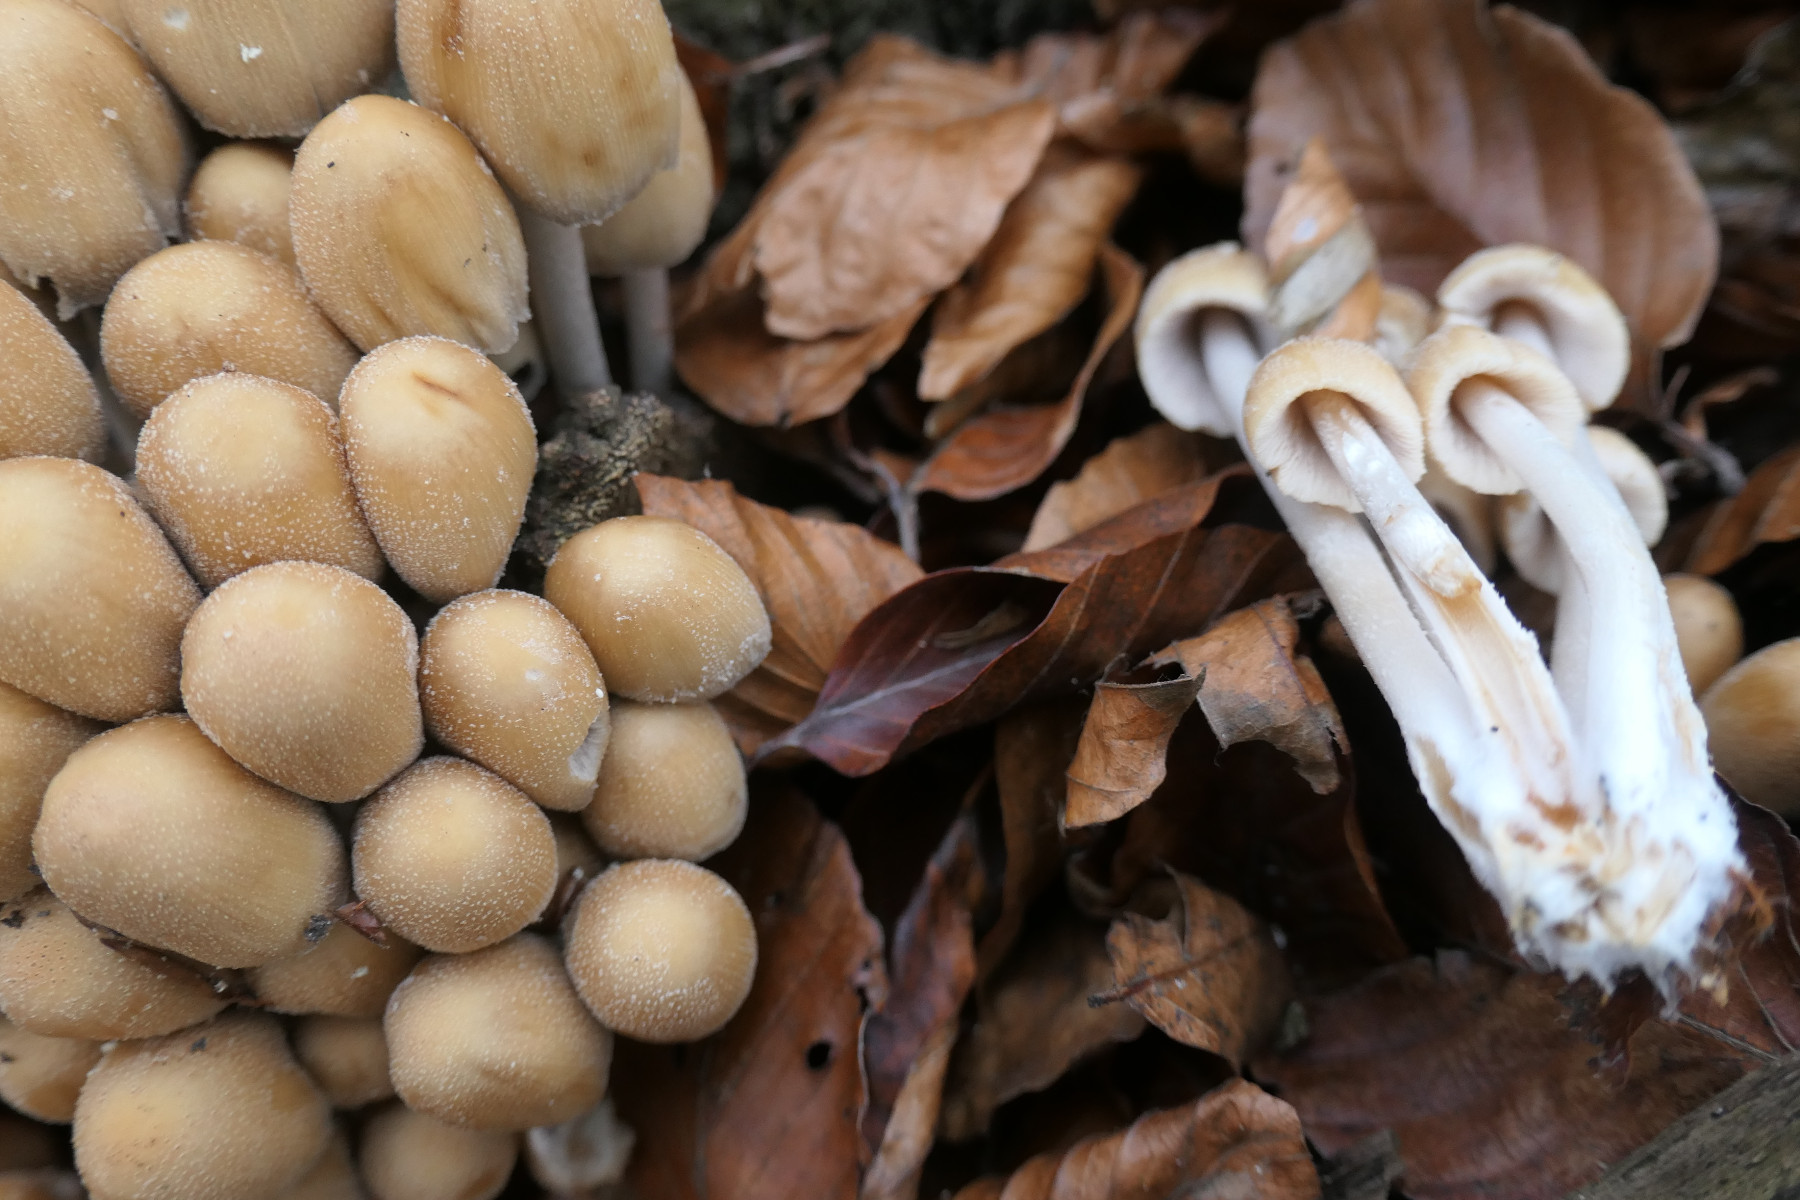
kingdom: Fungi
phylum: Basidiomycota
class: Agaricomycetes
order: Agaricales
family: Psathyrellaceae
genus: Coprinellus
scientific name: Coprinellus micaceus
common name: glimmer-blækhat
